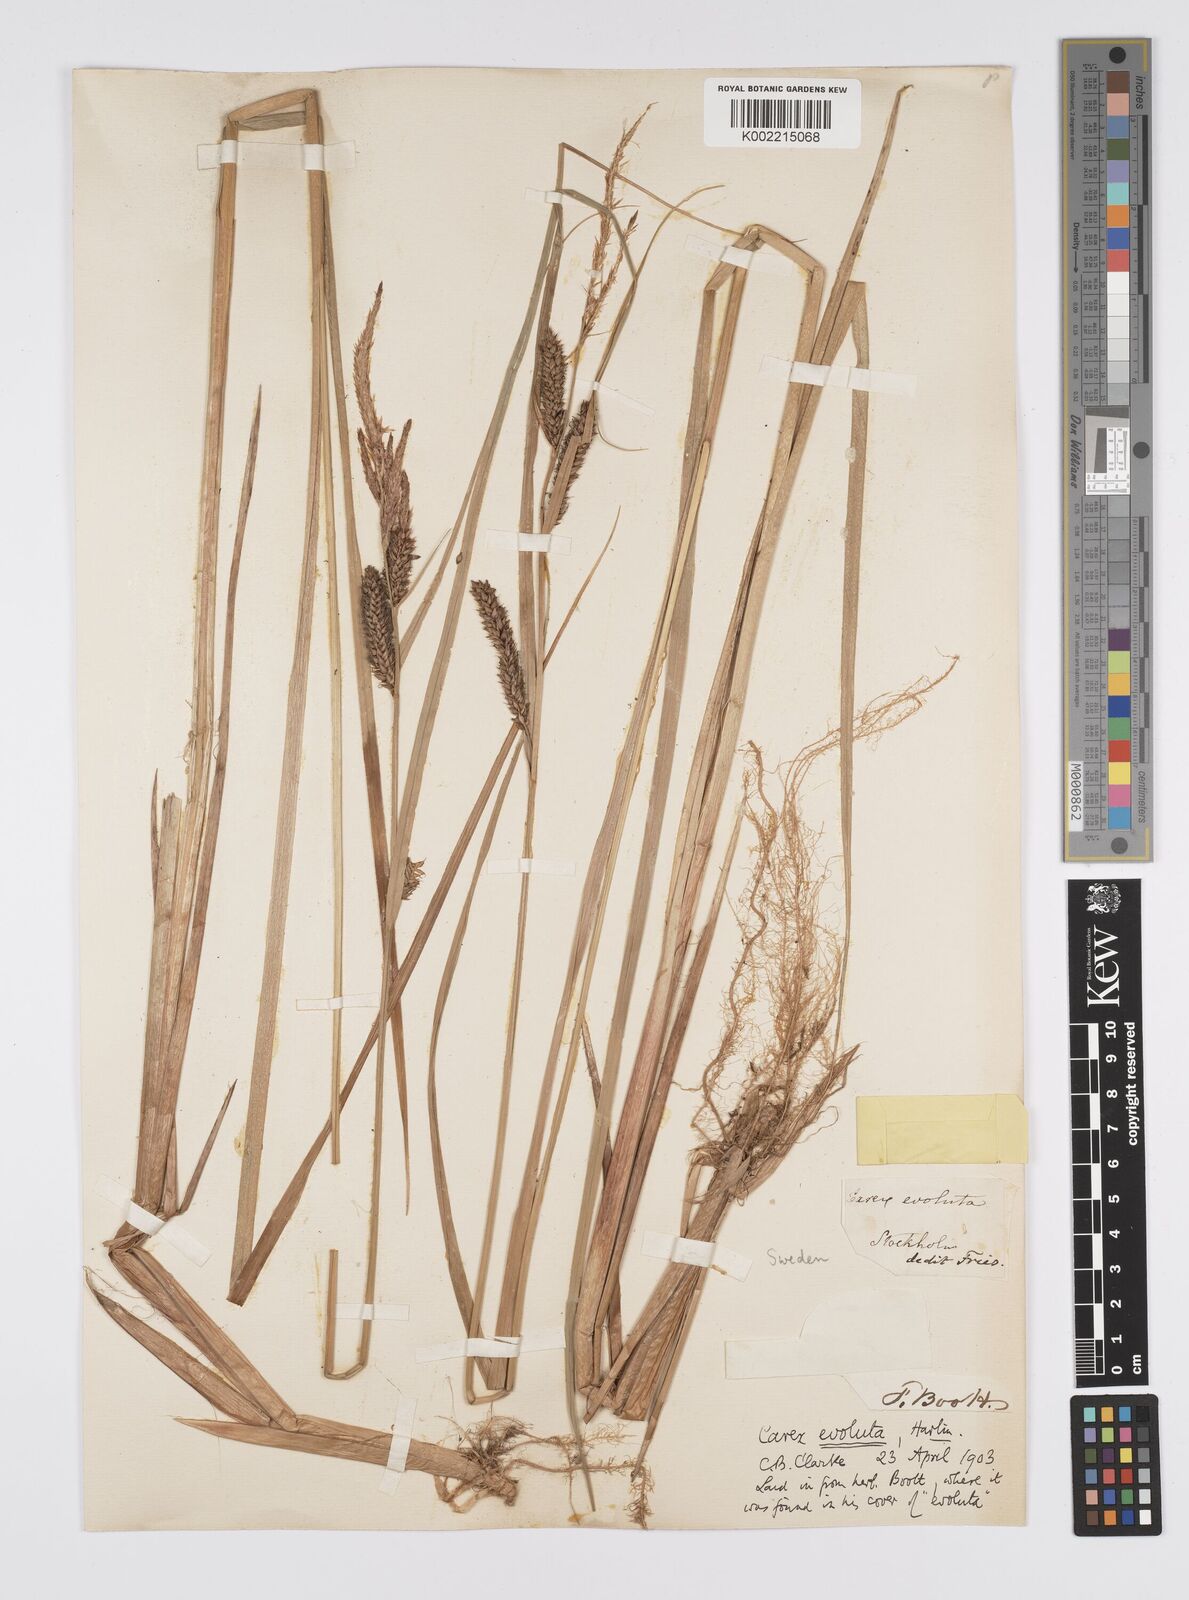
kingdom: Plantae
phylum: Tracheophyta
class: Liliopsida
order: Poales
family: Cyperaceae
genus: Carex
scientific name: Carex evoluta
